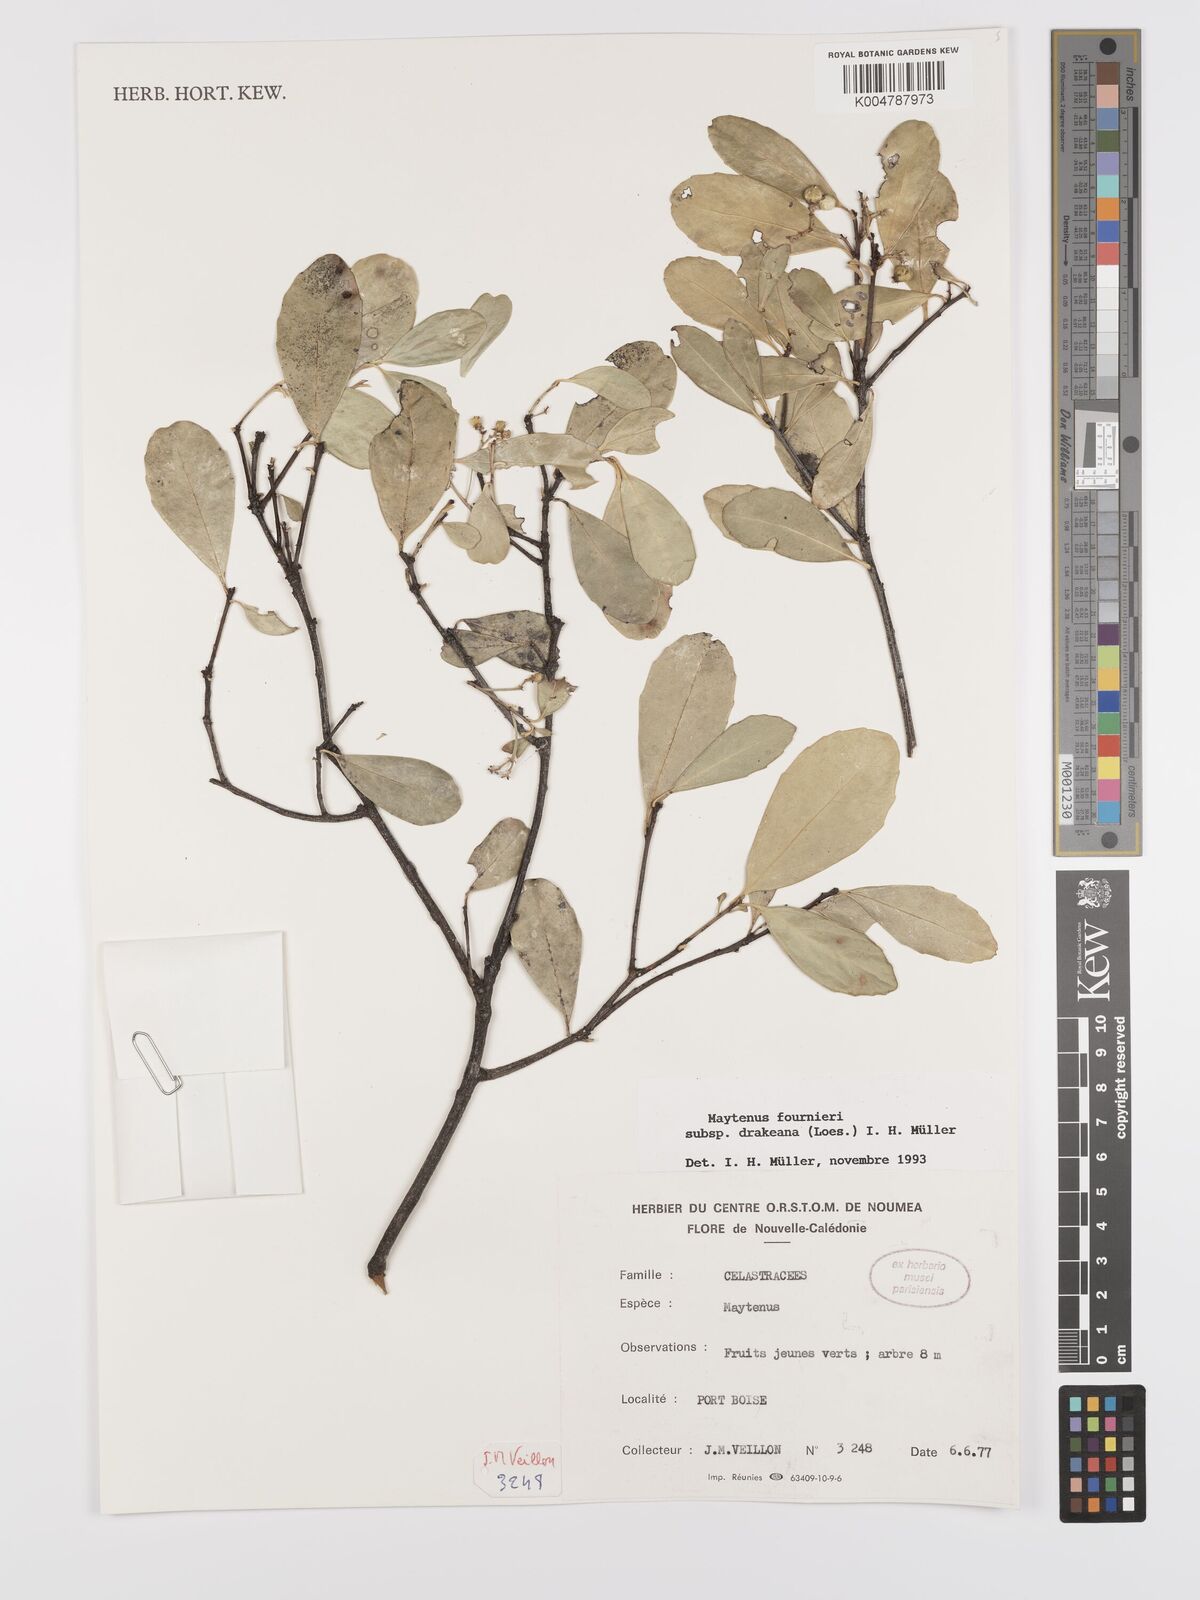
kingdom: Plantae
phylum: Tracheophyta
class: Magnoliopsida
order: Celastrales
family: Celastraceae
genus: Denhamia
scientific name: Denhamia fournieri
